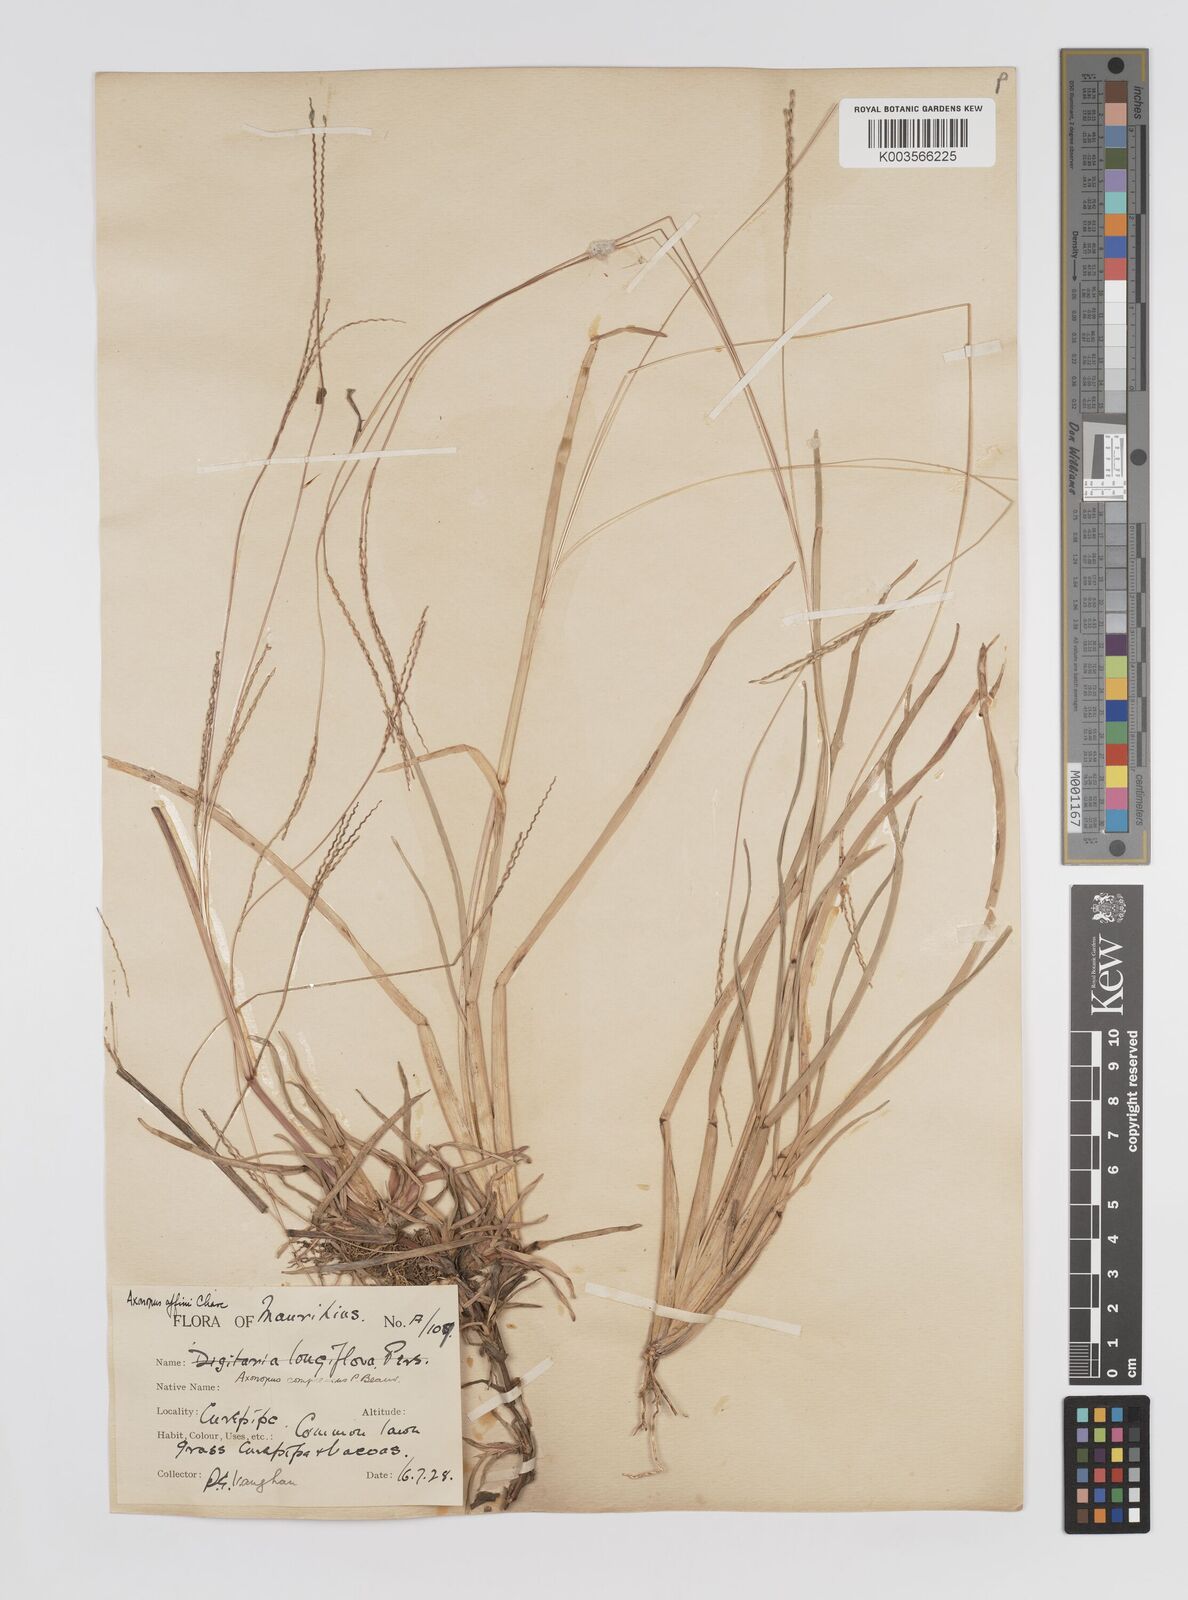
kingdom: Plantae
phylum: Tracheophyta
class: Liliopsida
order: Poales
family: Poaceae
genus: Axonopus
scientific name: Axonopus fissifolius
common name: Common carpetgrass
